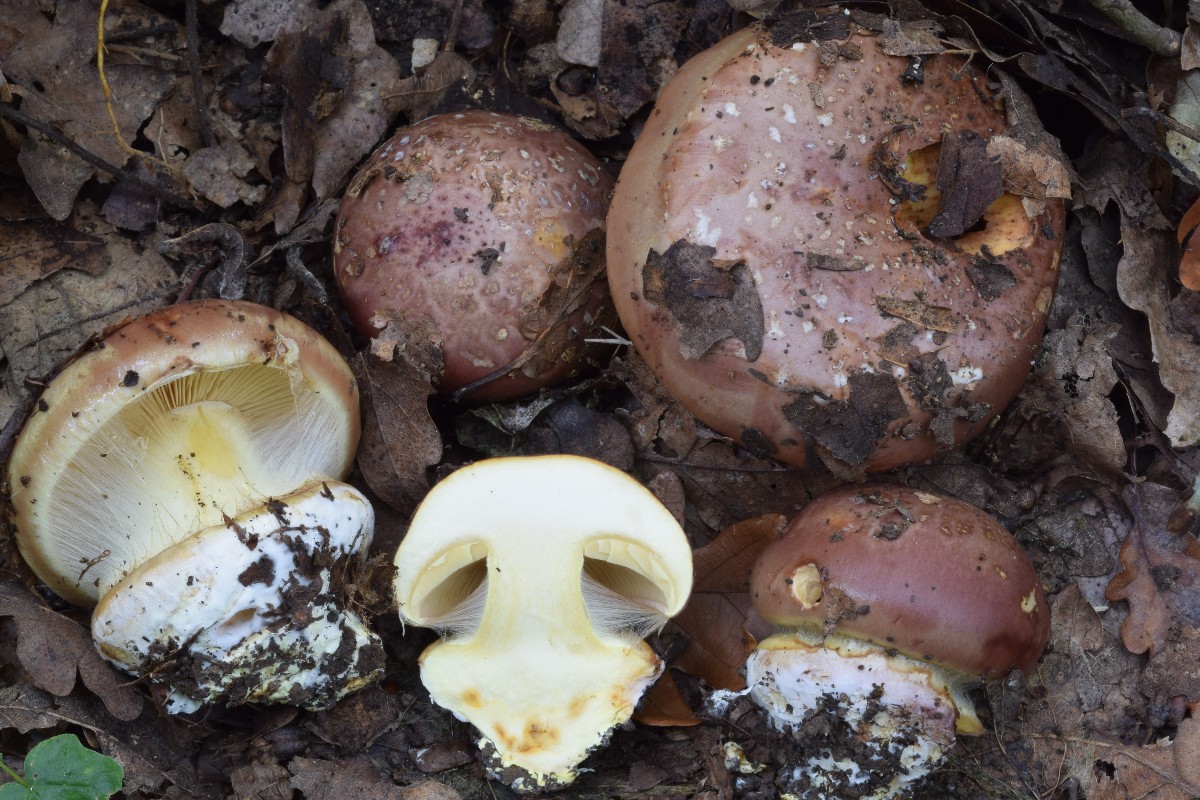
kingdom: Fungi
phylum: Basidiomycota
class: Agaricomycetes
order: Agaricales
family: Cortinariaceae
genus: Calonarius
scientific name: Calonarius quercilicis
